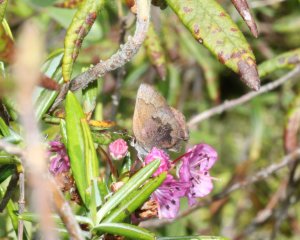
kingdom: Animalia
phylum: Arthropoda
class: Insecta
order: Lepidoptera
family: Lycaenidae
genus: Incisalia
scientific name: Incisalia irioides
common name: Brown Elfin
